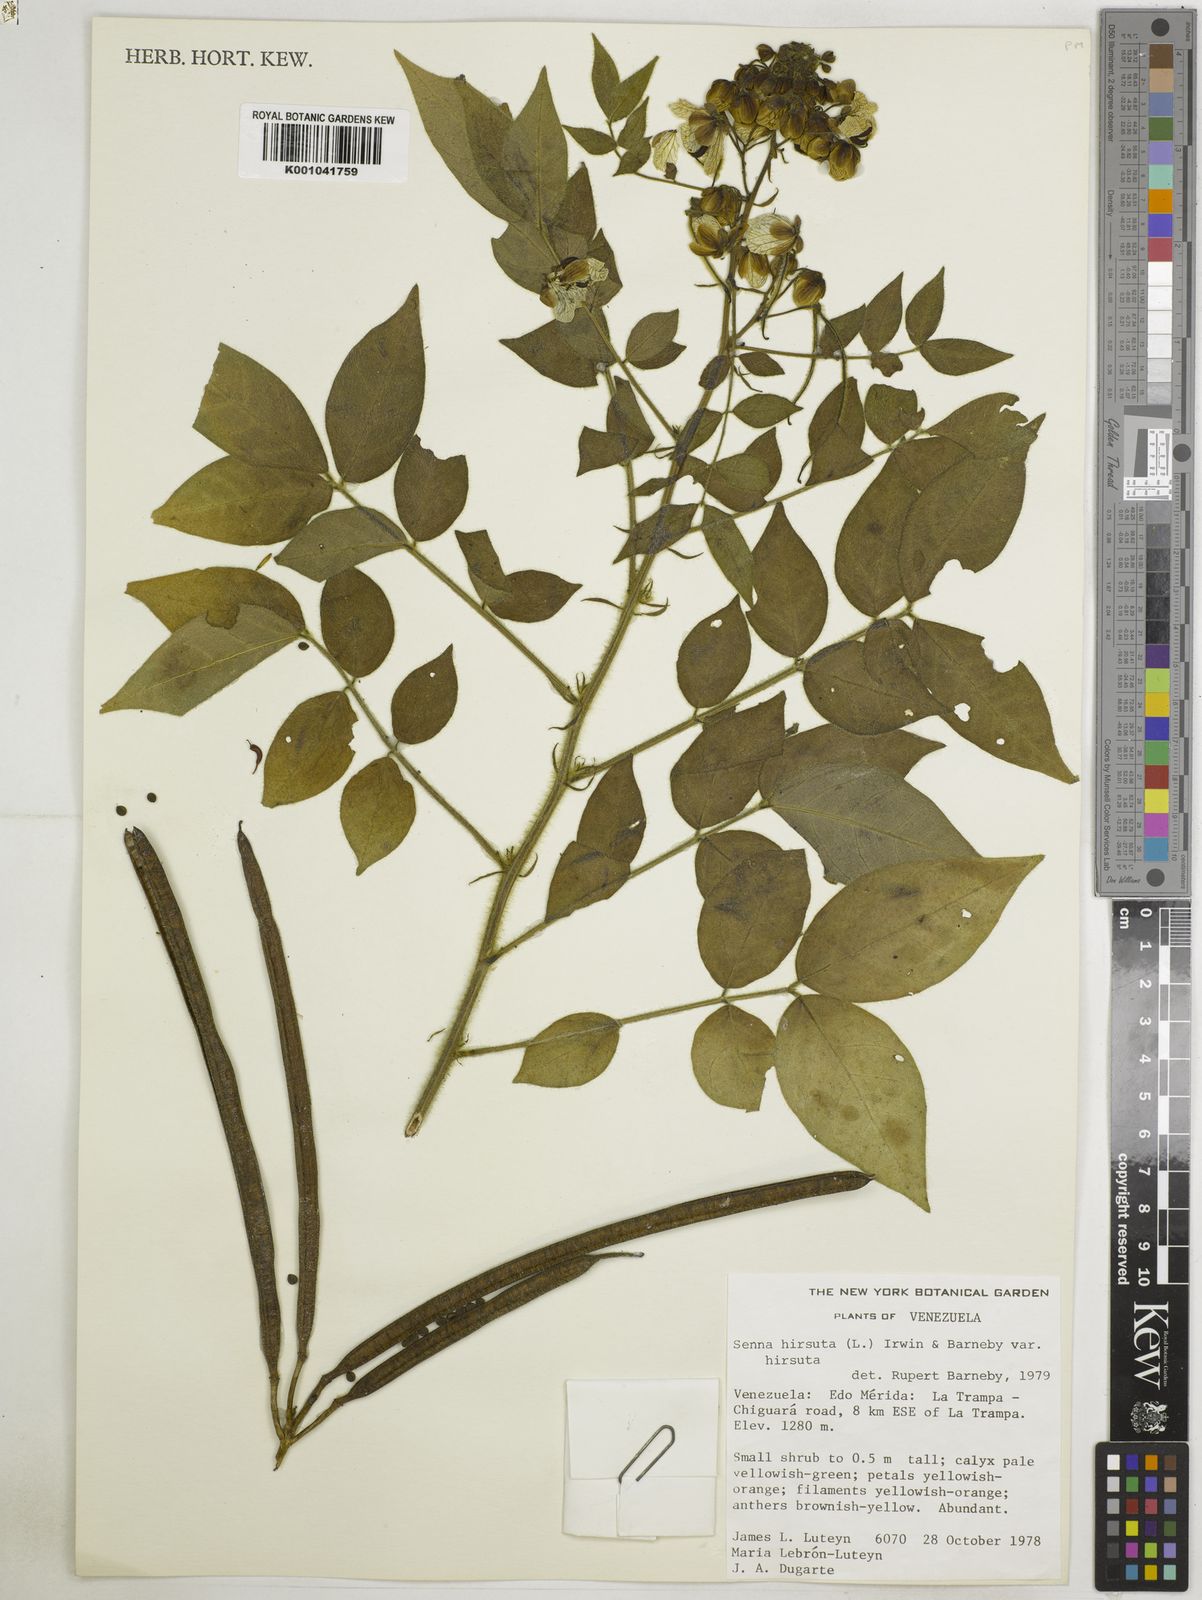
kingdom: Plantae
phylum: Tracheophyta
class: Magnoliopsida
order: Fabales
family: Fabaceae
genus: Senna
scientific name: Senna hirsuta
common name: Woolly senna
